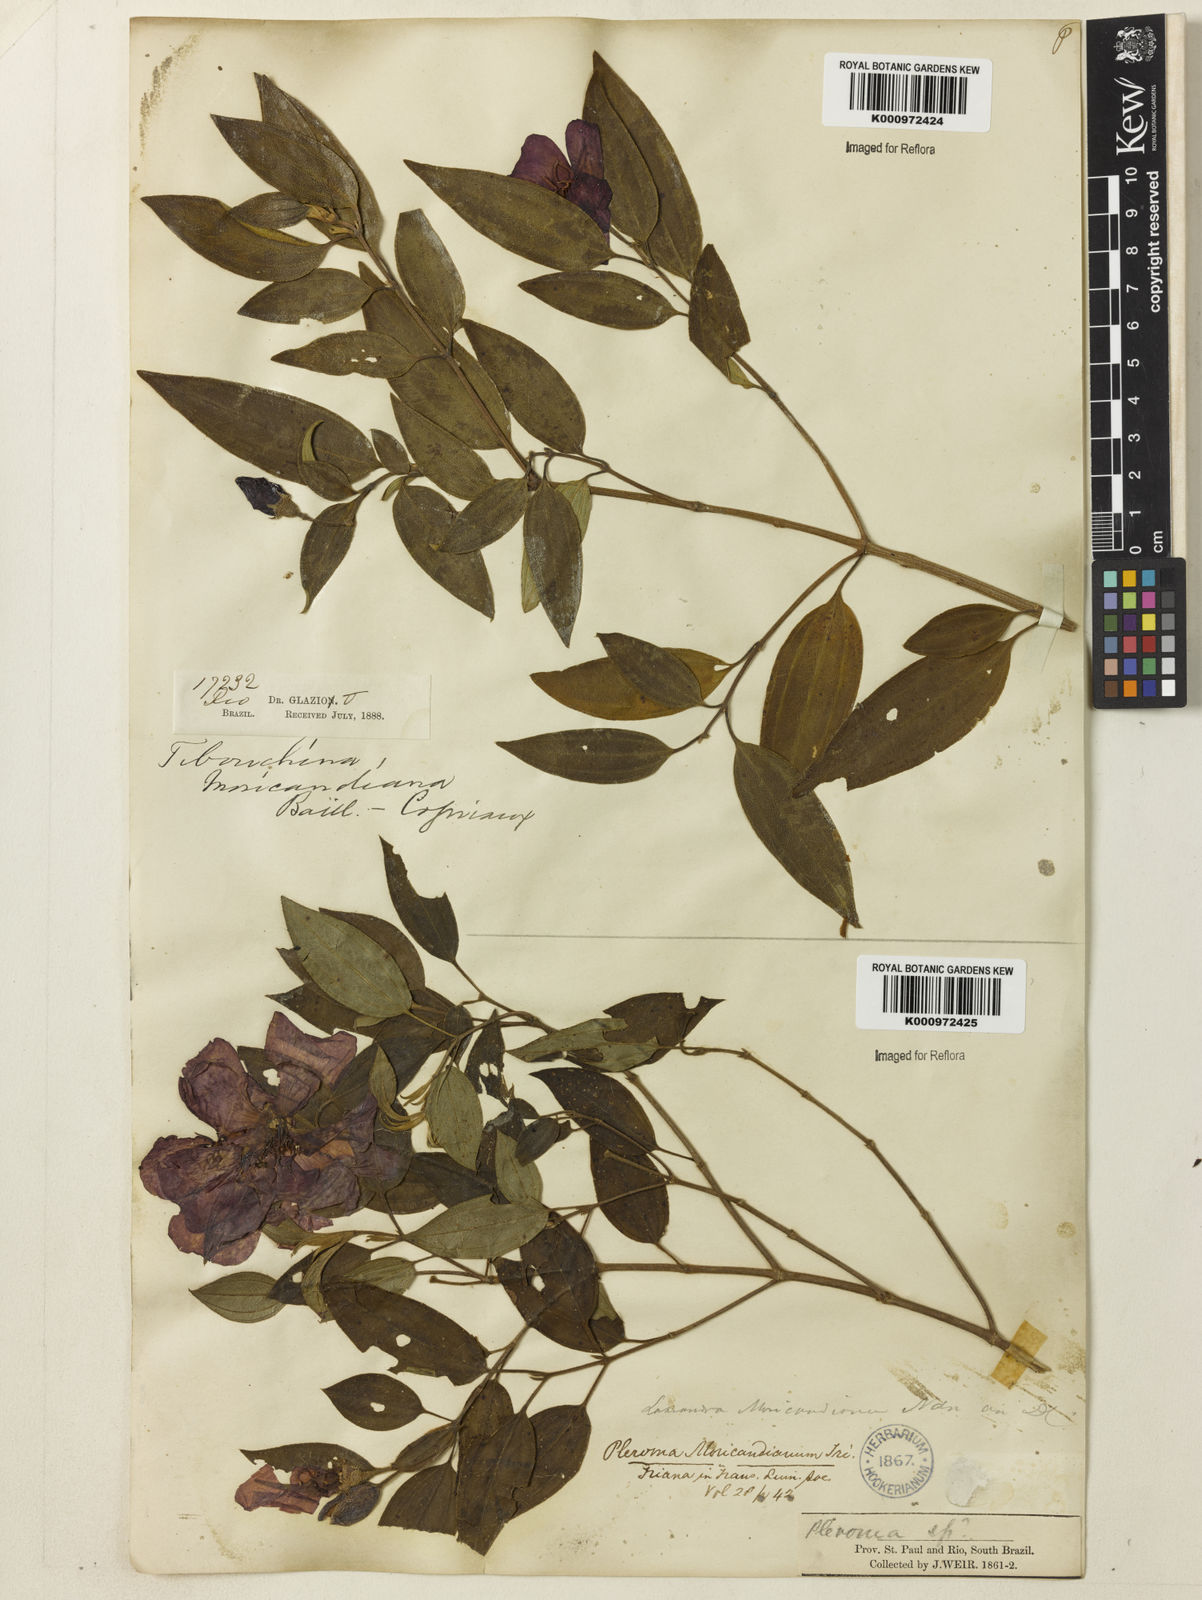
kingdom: Plantae
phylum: Tracheophyta
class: Magnoliopsida
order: Myrtales
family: Melastomataceae
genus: Pleroma
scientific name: Pleroma gaudichaudianum
